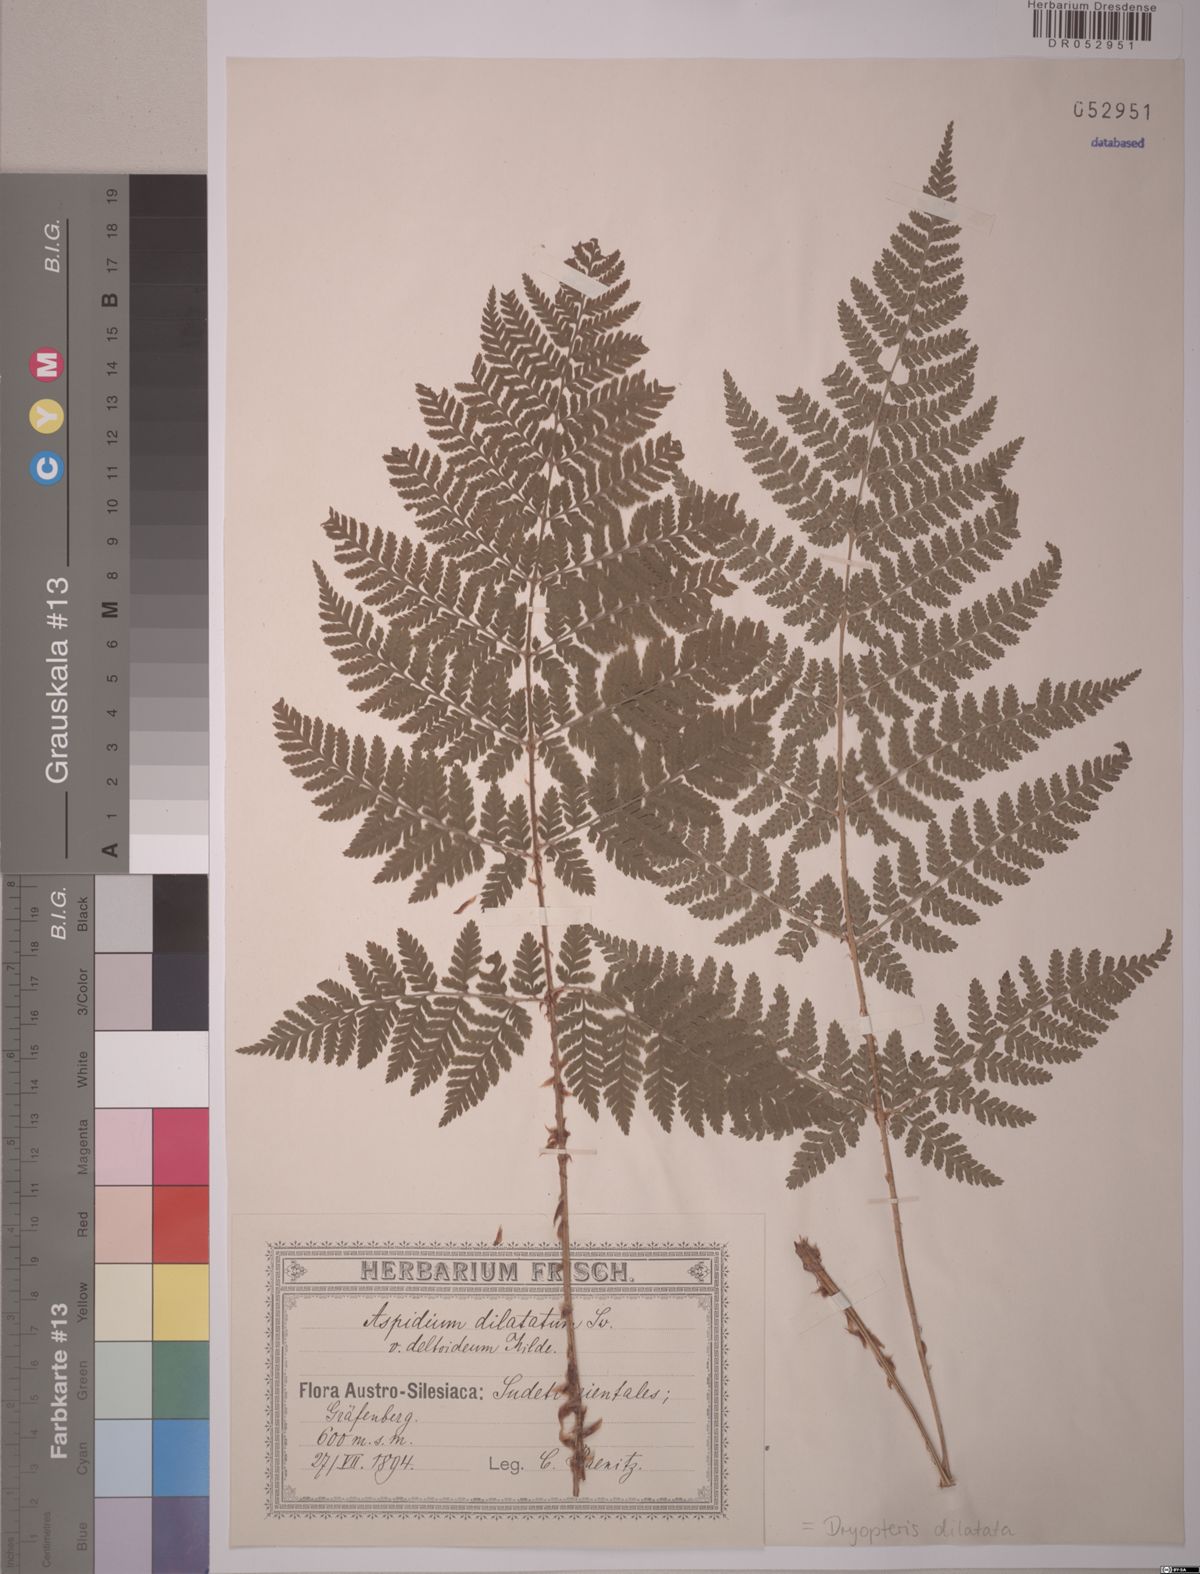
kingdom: Plantae
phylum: Tracheophyta
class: Polypodiopsida
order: Polypodiales
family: Dryopteridaceae
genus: Dryopteris
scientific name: Dryopteris dilatata
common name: Broad buckler-fern
